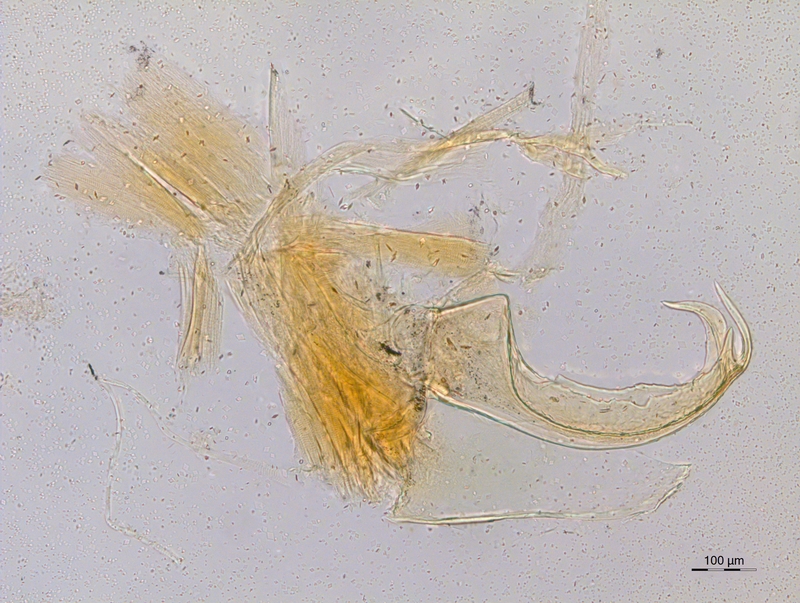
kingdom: Animalia
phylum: Arthropoda
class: Diplopoda
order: Chordeumatida
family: Craspedosomatidae
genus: Atractosoma
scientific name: Atractosoma cecconii
